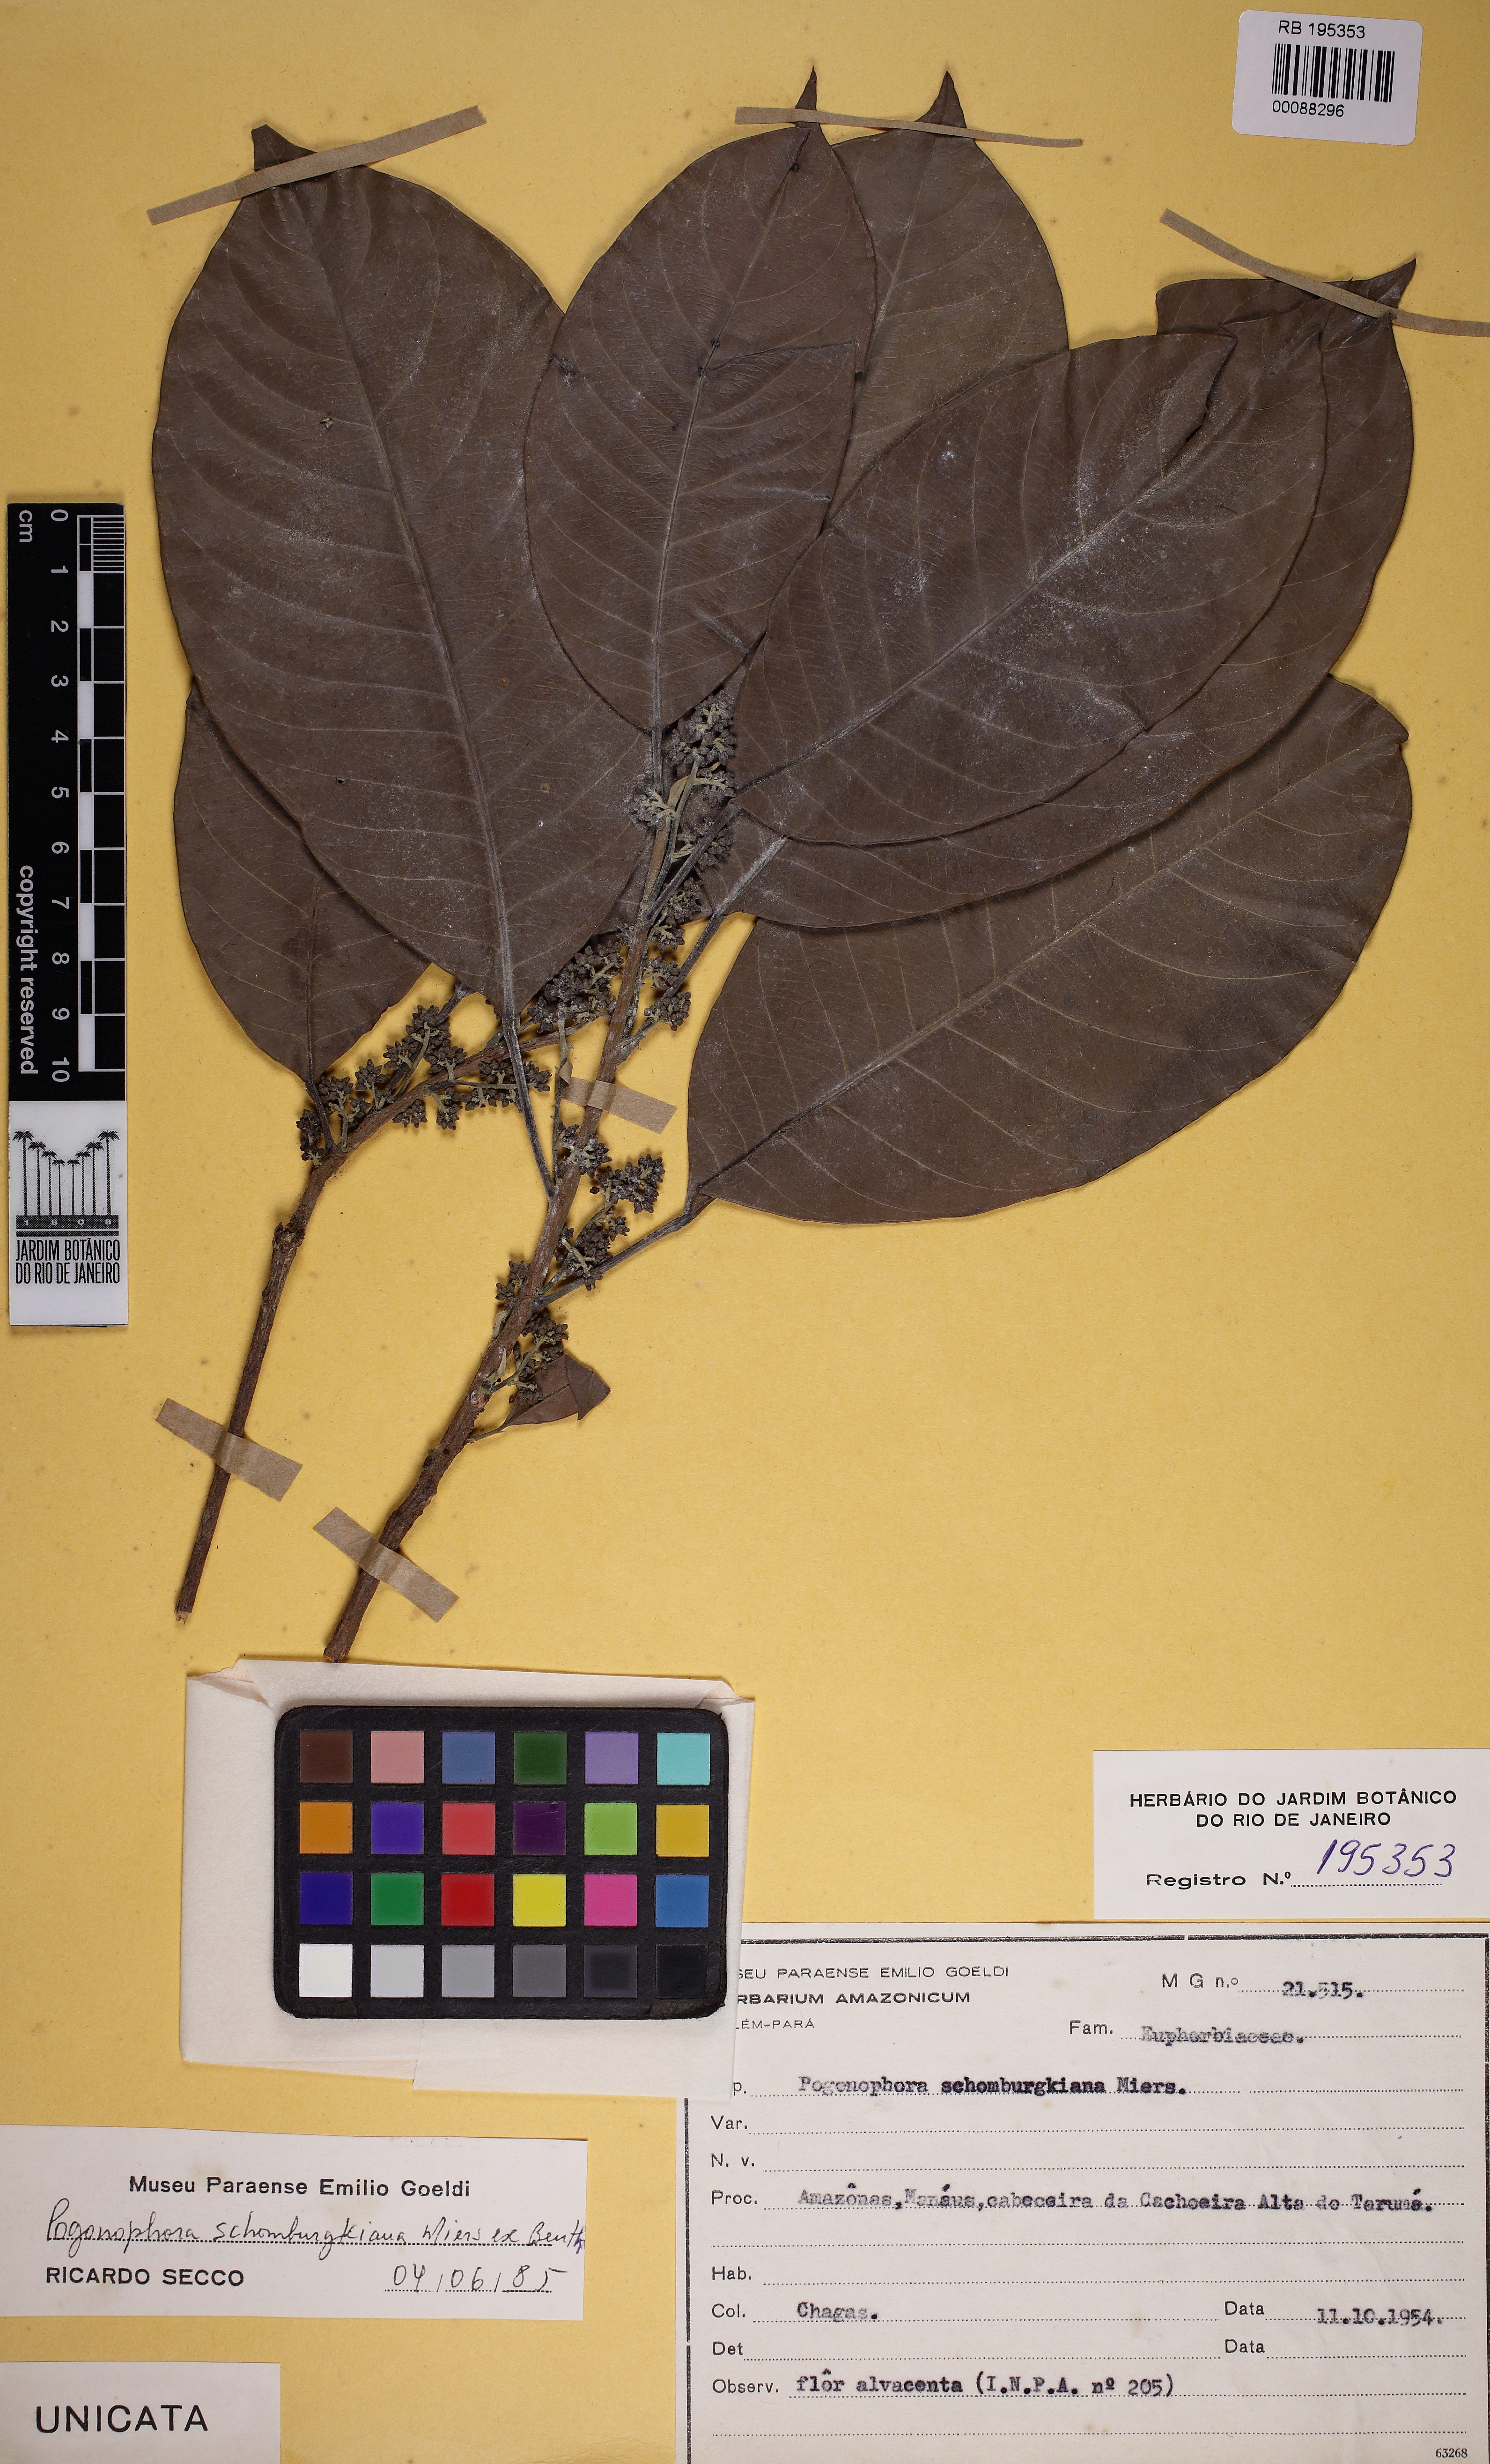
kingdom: Plantae
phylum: Tracheophyta
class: Magnoliopsida
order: Malpighiales
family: Peraceae
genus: Pogonophora
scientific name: Pogonophora schomburgkiana
